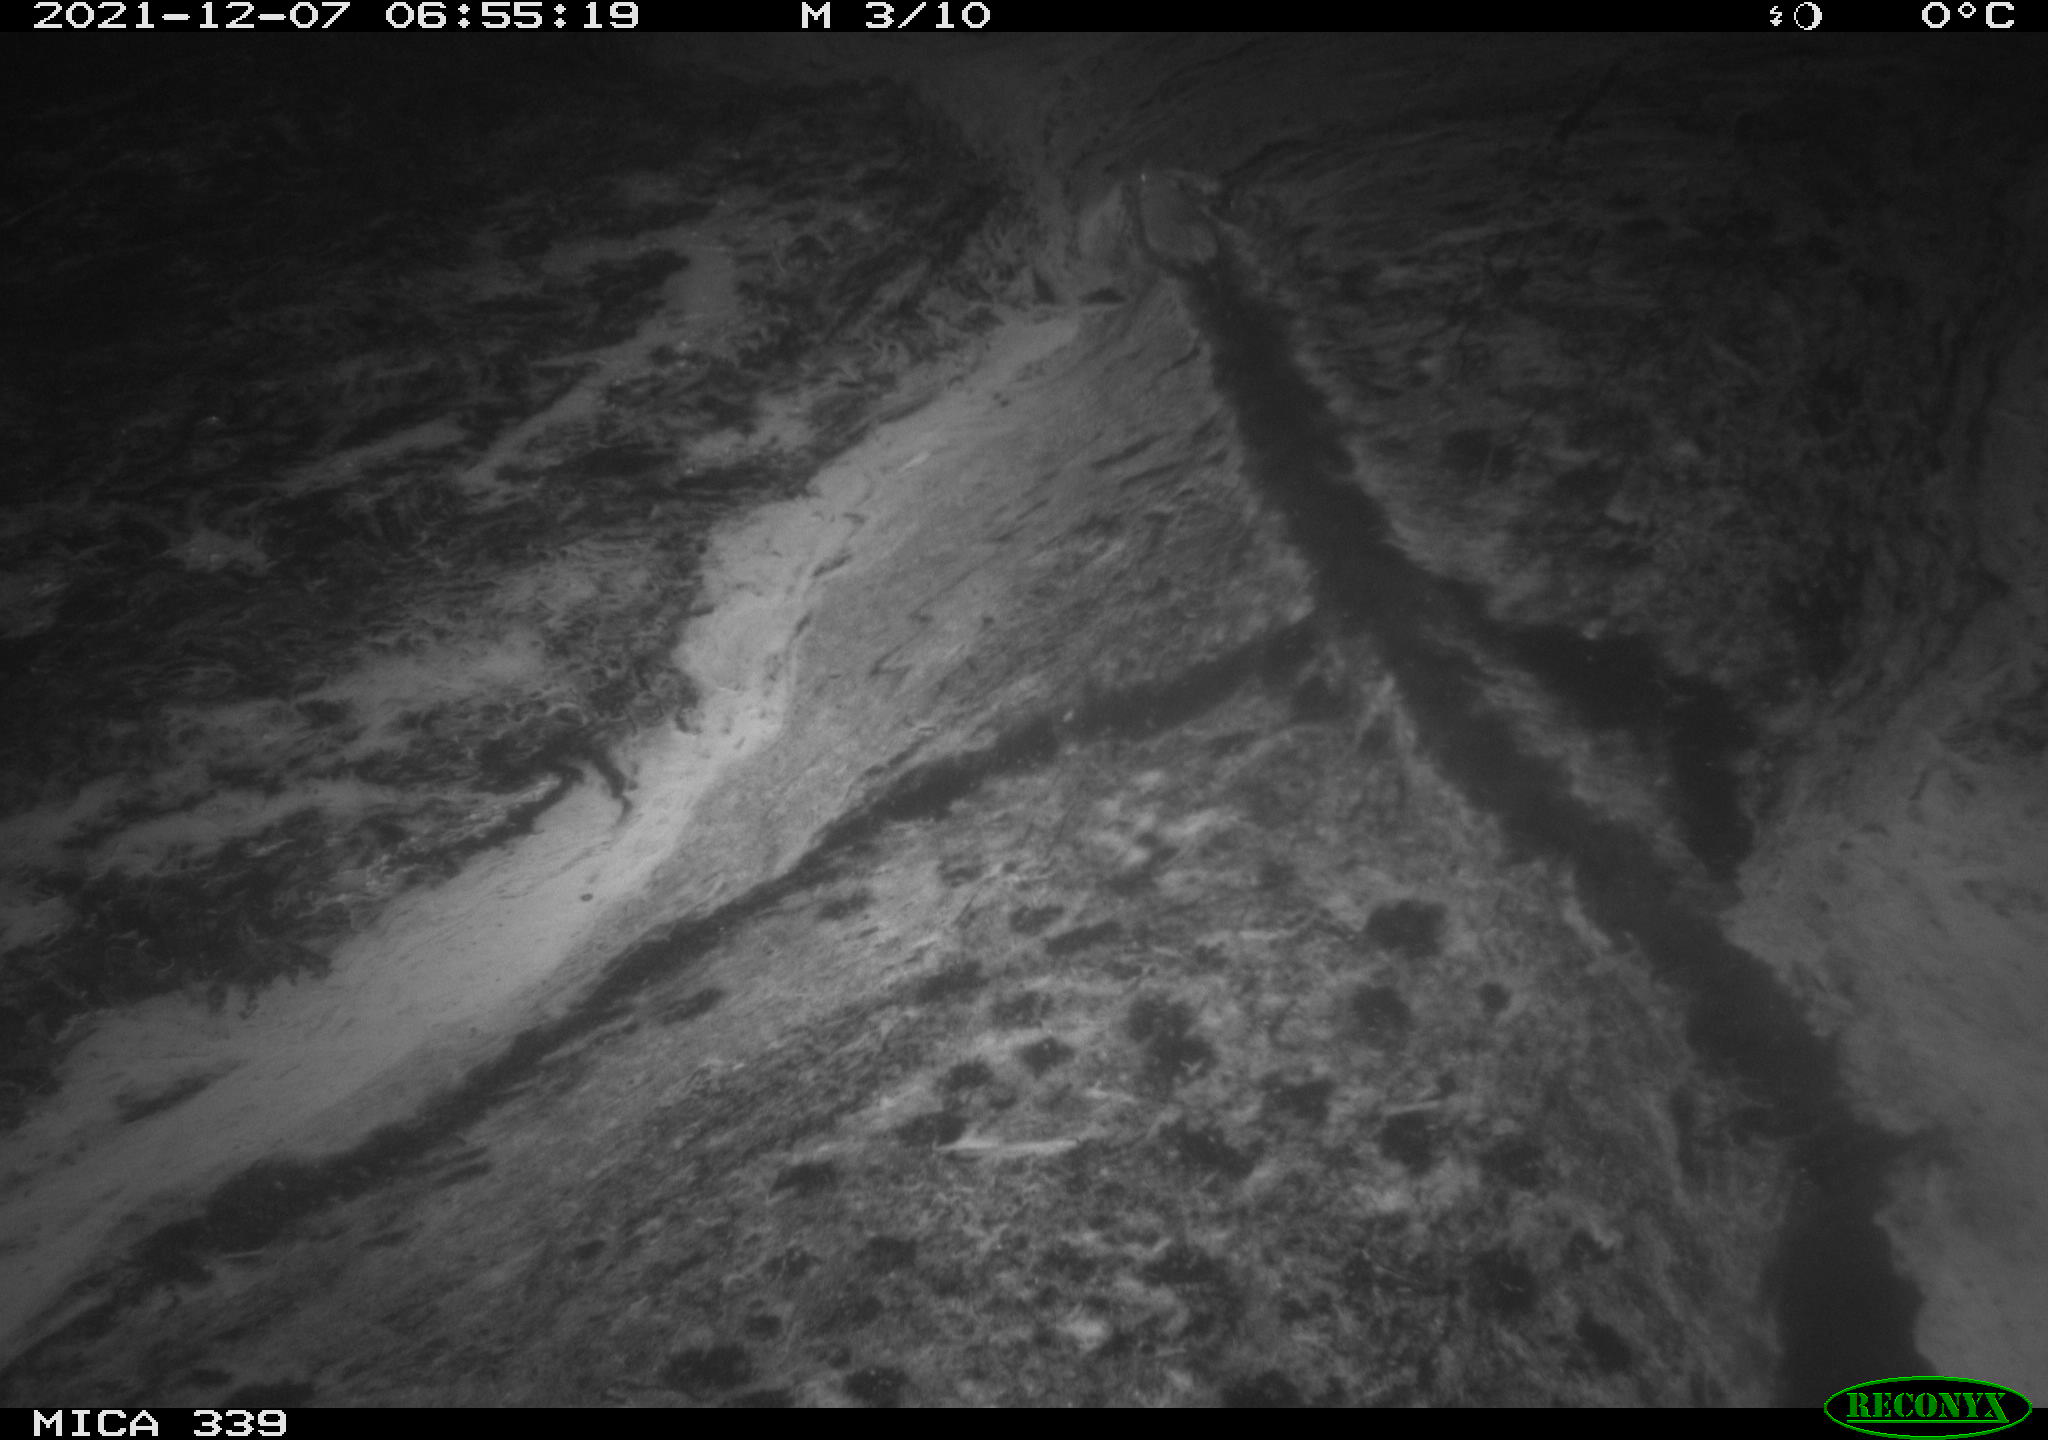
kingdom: Animalia
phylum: Chordata
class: Mammalia
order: Rodentia
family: Muridae
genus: Rattus
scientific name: Rattus norvegicus
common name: Brown rat
